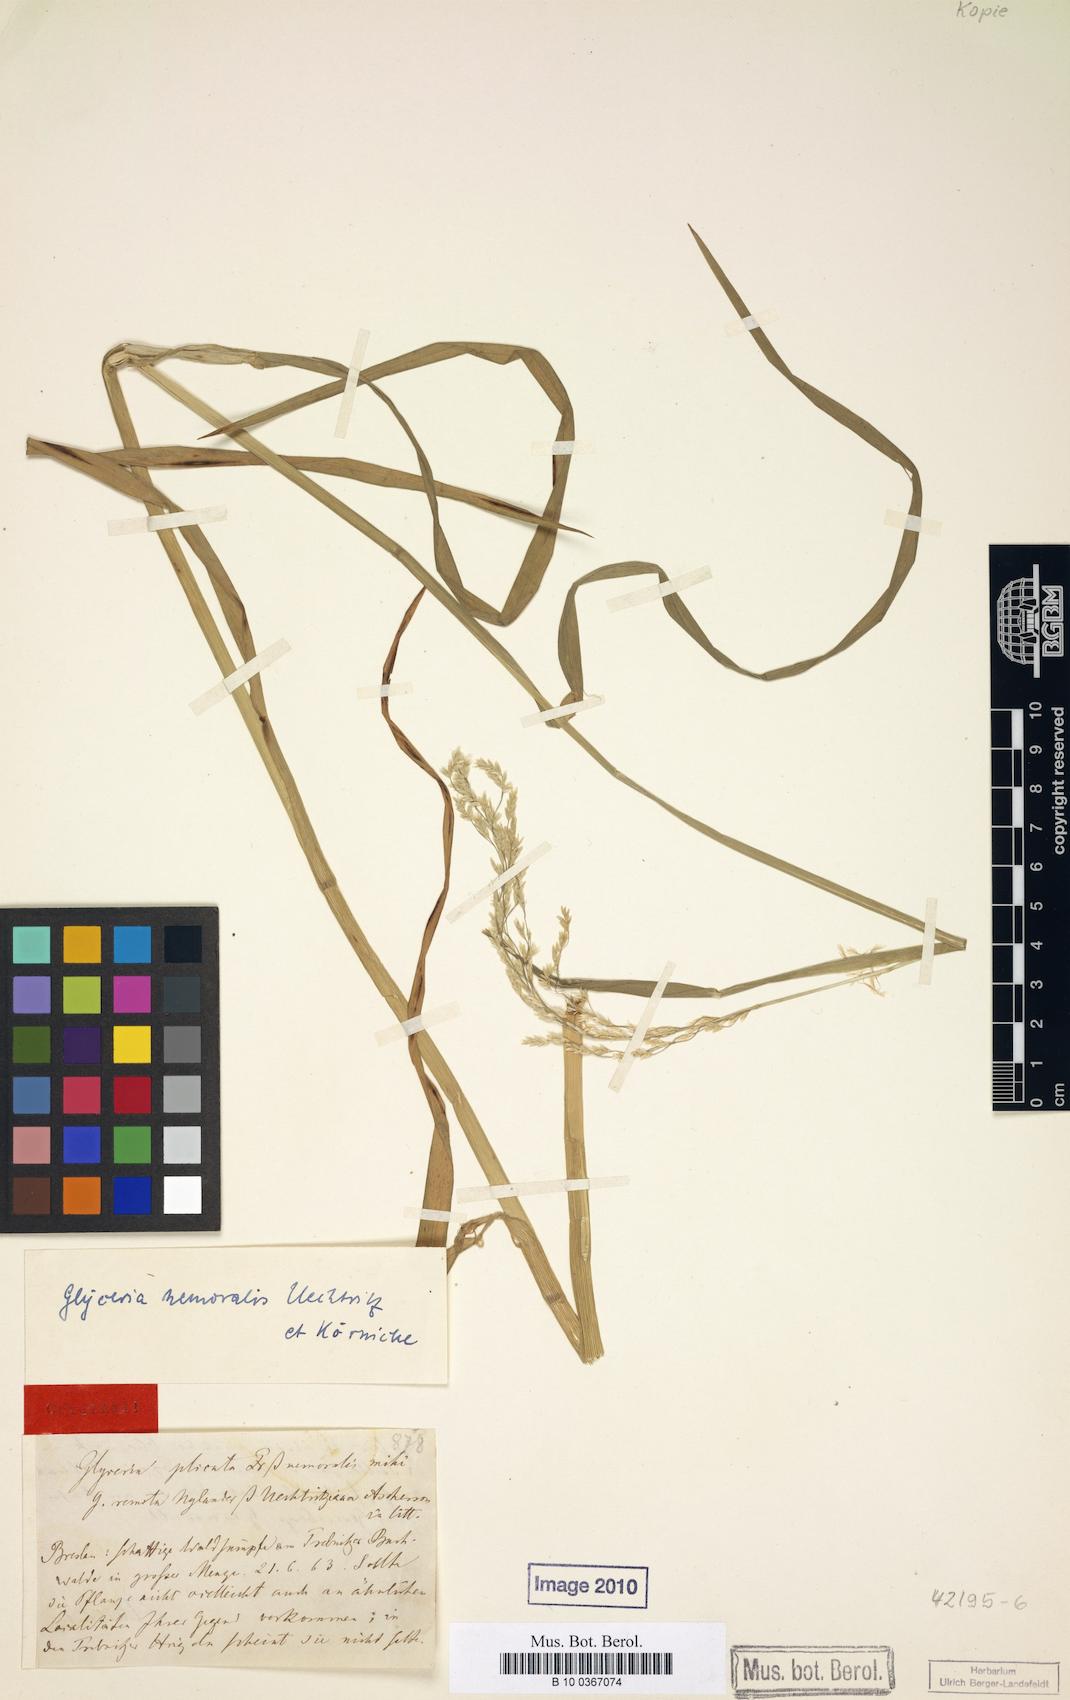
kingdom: Plantae
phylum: Tracheophyta
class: Liliopsida
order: Poales
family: Poaceae
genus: Glyceria
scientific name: Glyceria nemoralis
